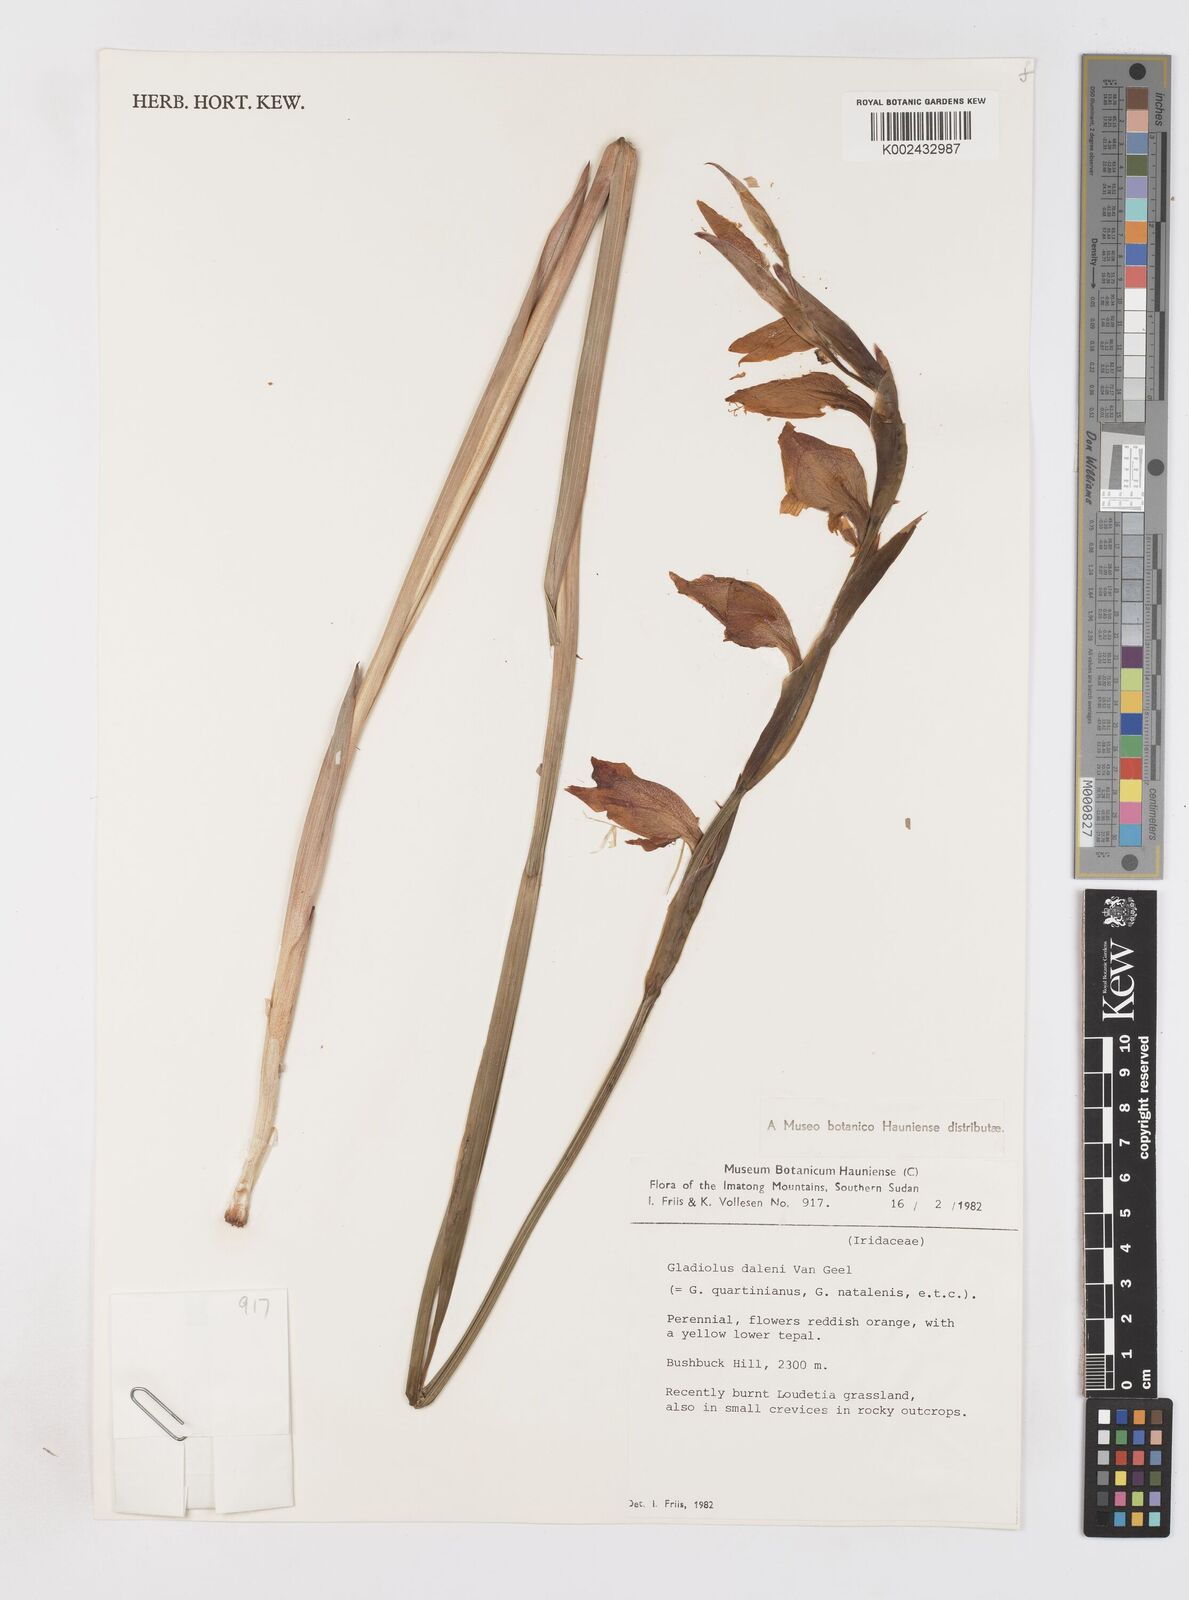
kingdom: Plantae
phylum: Tracheophyta
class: Liliopsida
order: Asparagales
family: Iridaceae
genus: Gladiolus
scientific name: Gladiolus dalenii
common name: Cornflag
